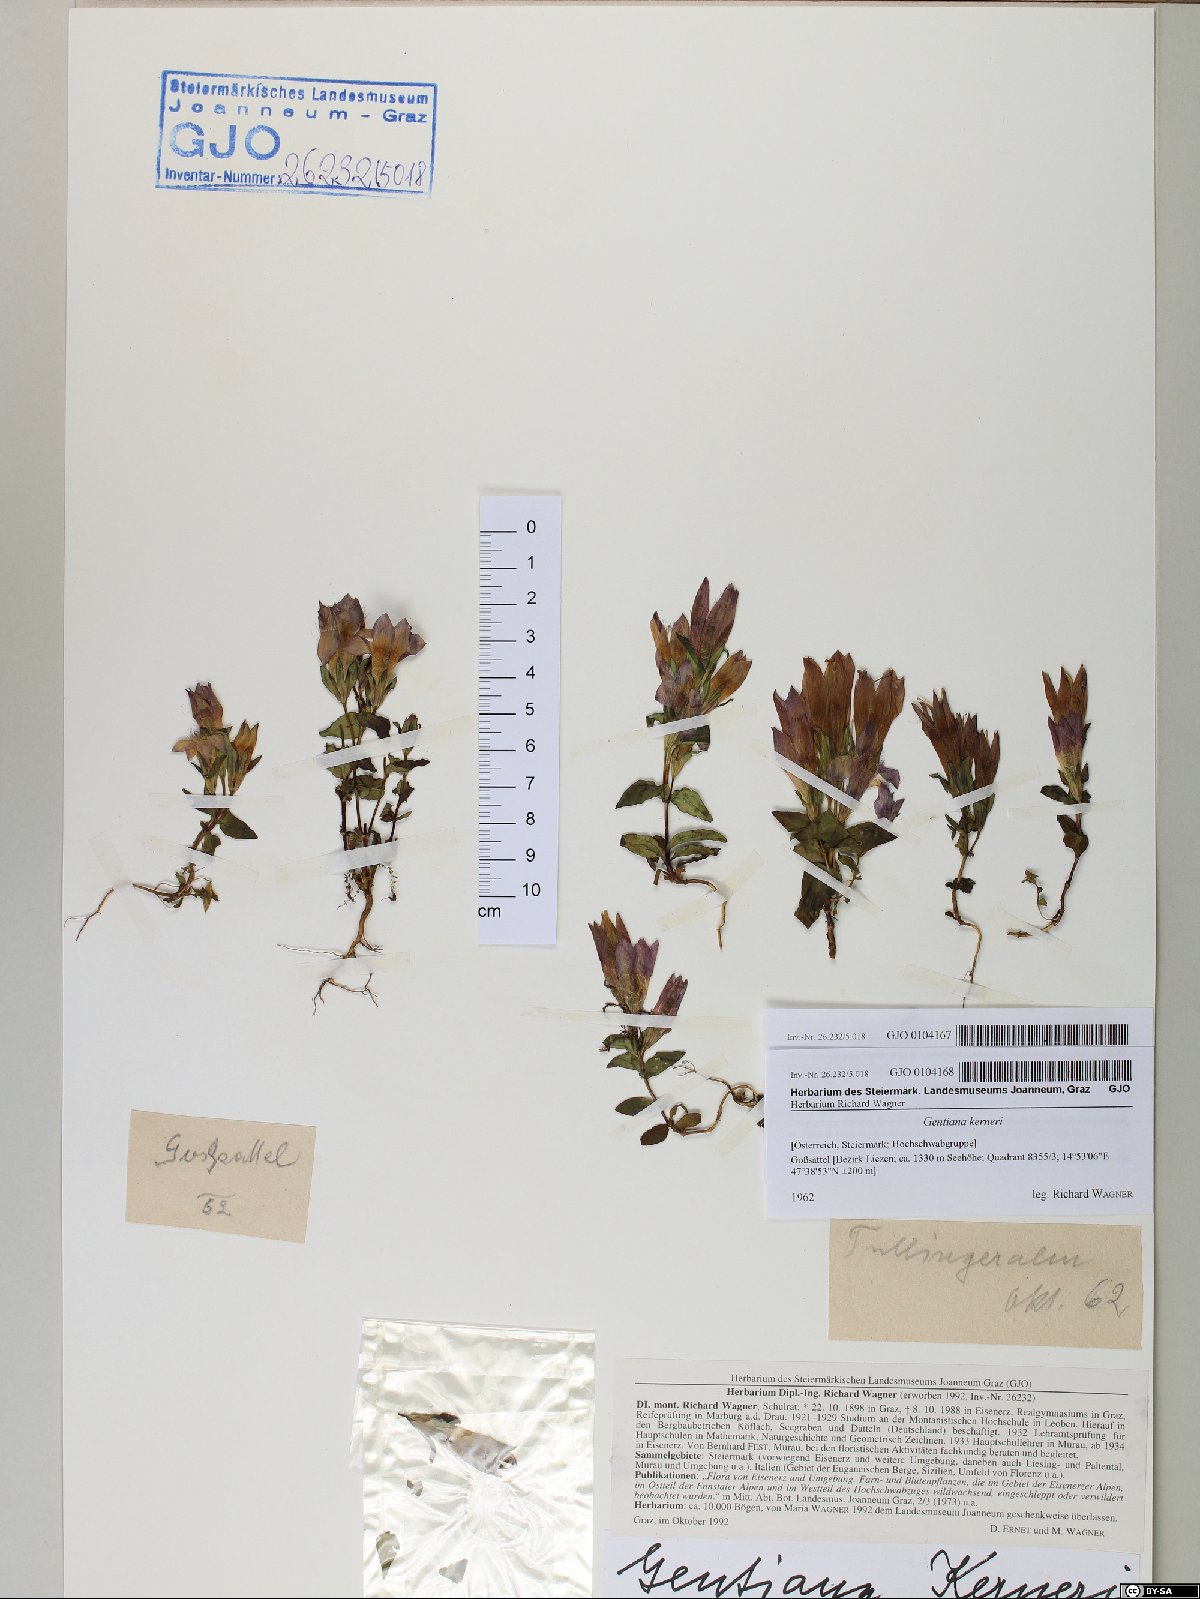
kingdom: Plantae
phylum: Tracheophyta
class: Magnoliopsida
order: Gentianales
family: Gentianaceae
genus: Gentianella
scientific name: Gentianella rhaetica
